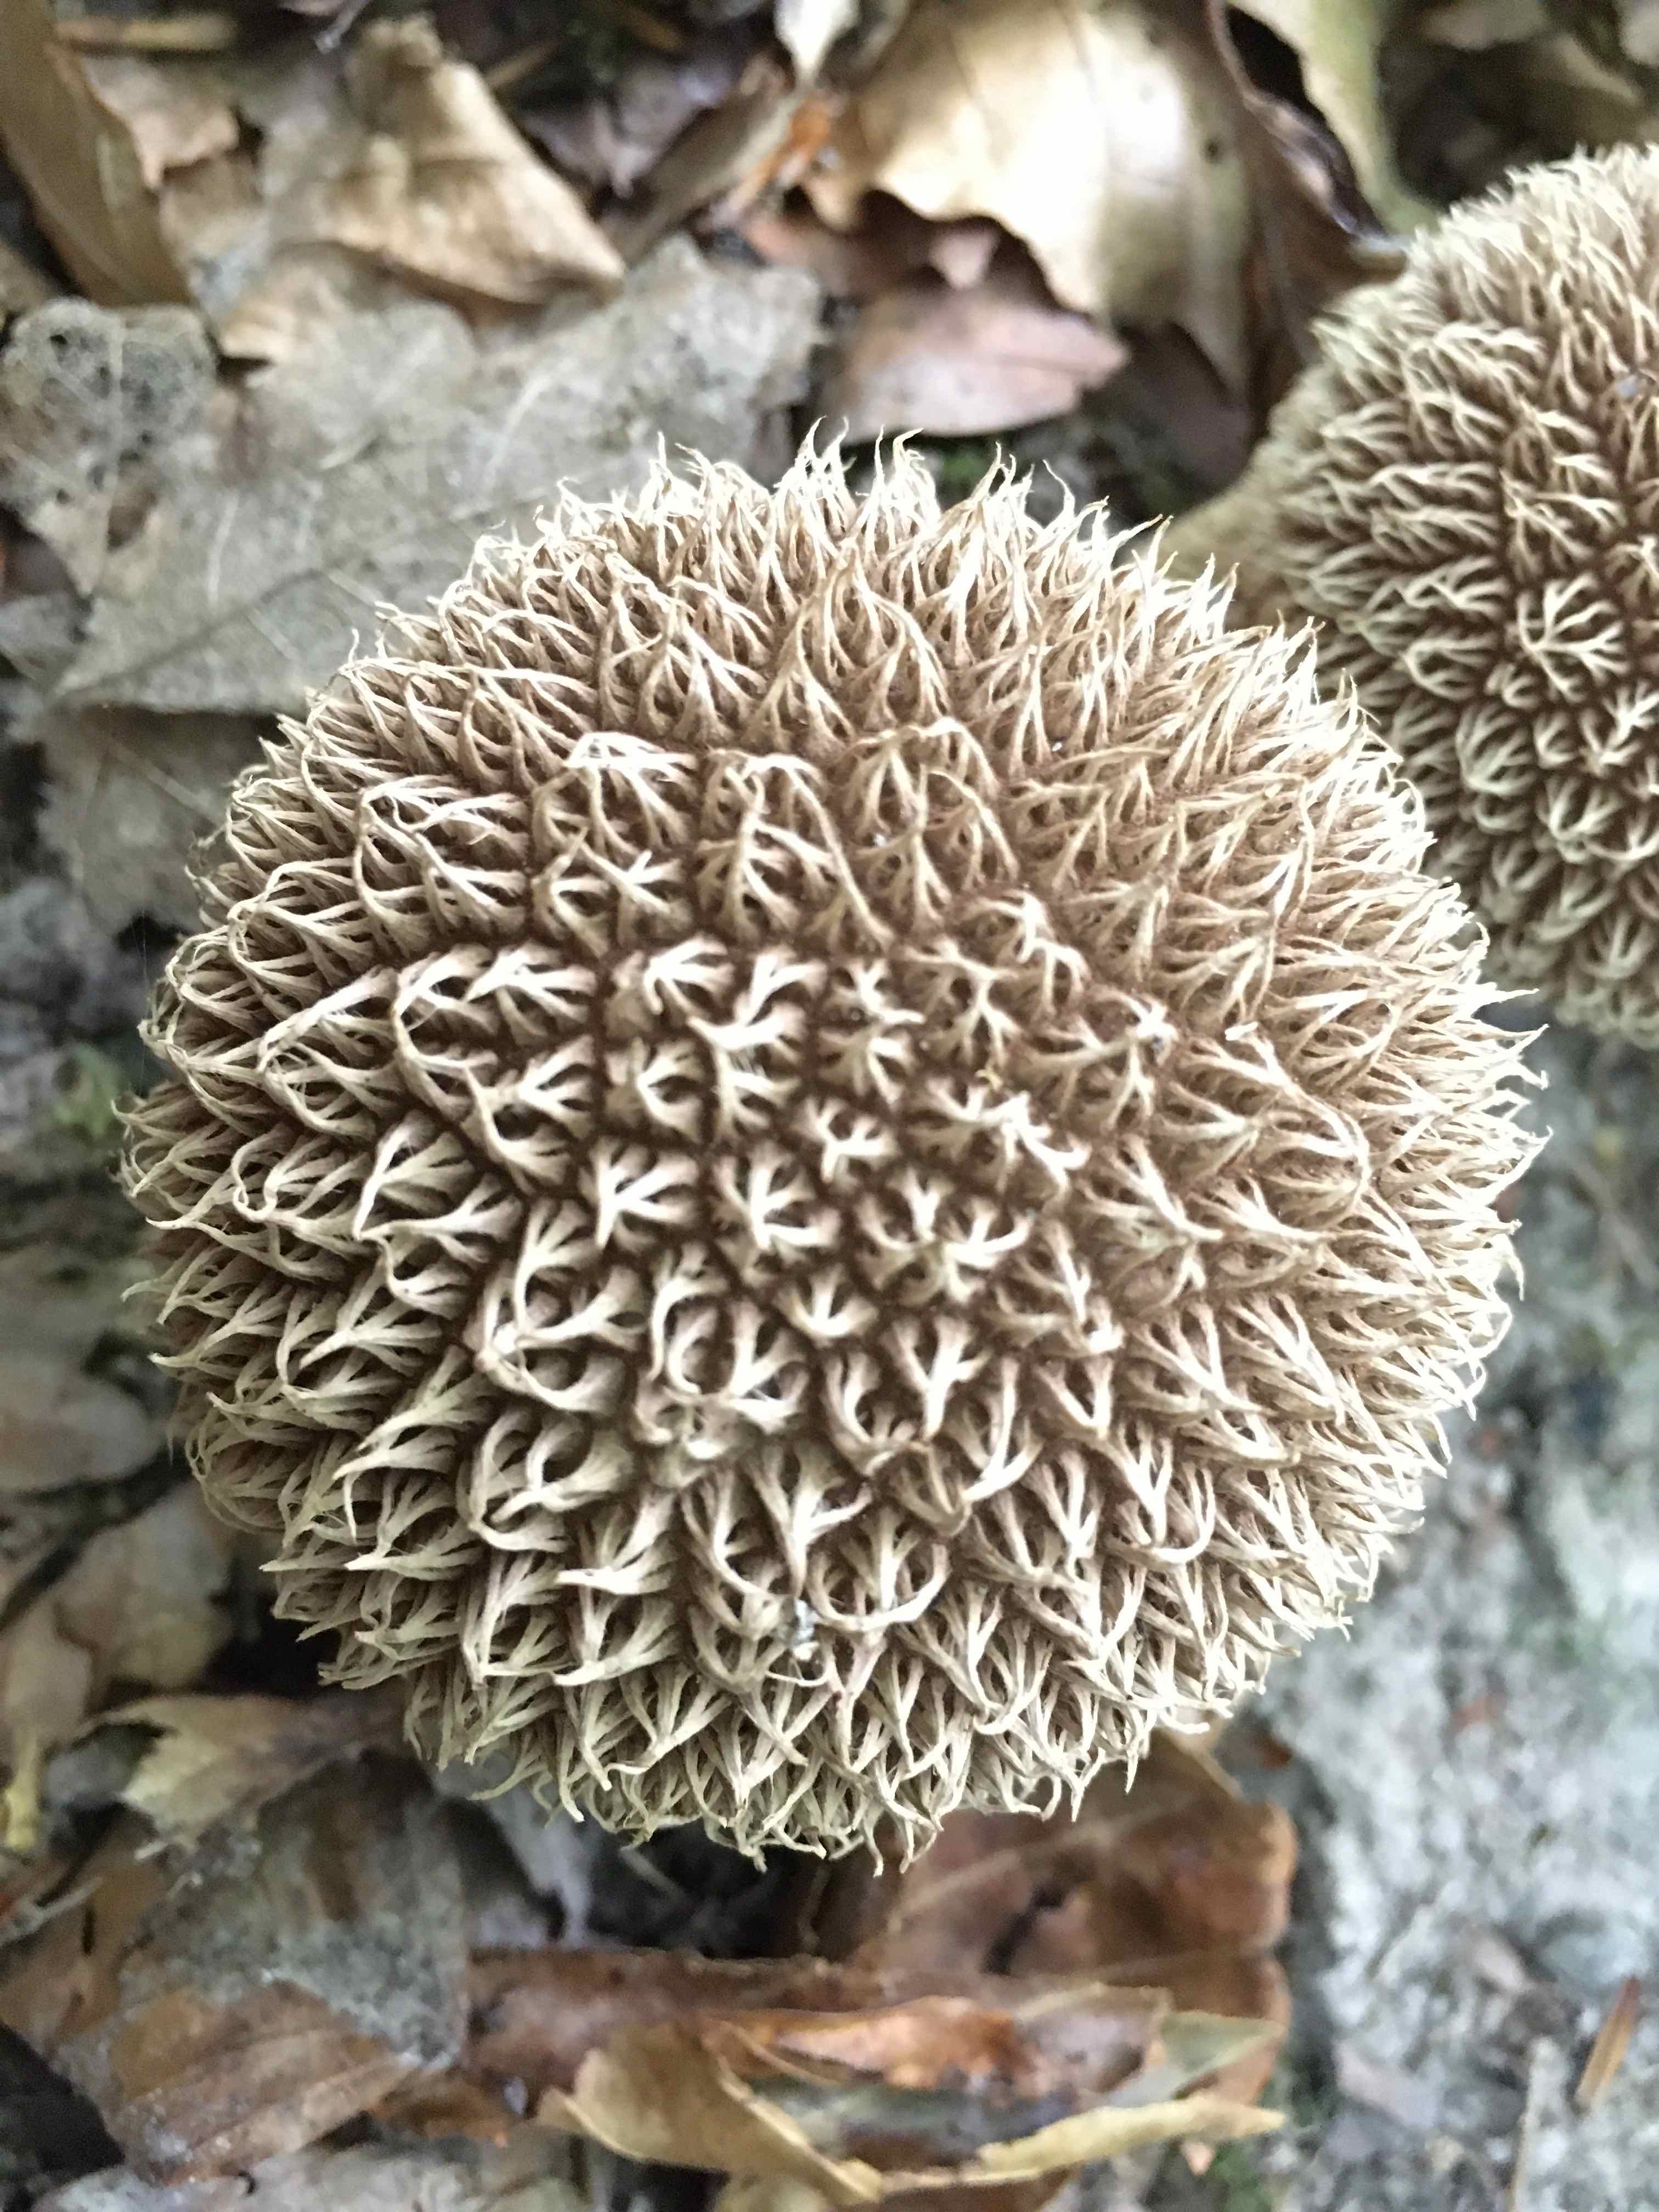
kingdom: Fungi
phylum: Basidiomycota
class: Agaricomycetes
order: Agaricales
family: Lycoperdaceae
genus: Lycoperdon
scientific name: Lycoperdon echinatum
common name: pindsvine-støvbold
